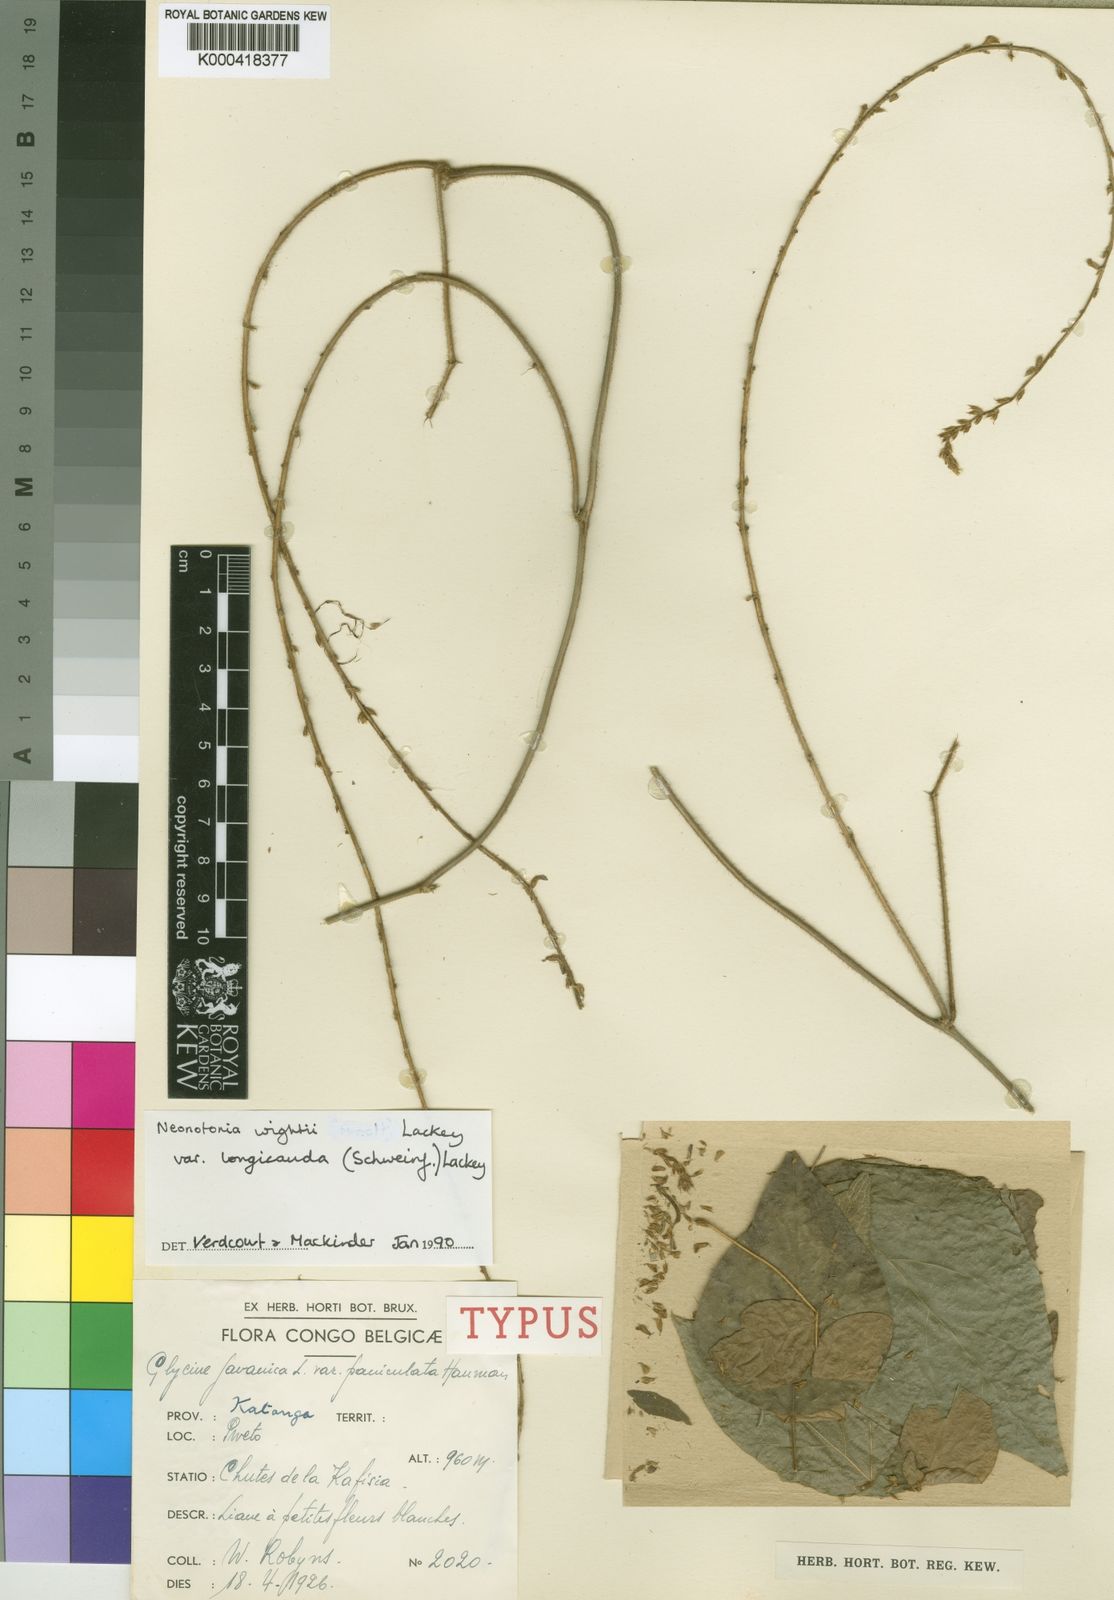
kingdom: Plantae
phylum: Tracheophyta
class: Magnoliopsida
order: Fabales
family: Fabaceae
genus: Neonotonia
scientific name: Neonotonia wightii
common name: Perennial soybean
